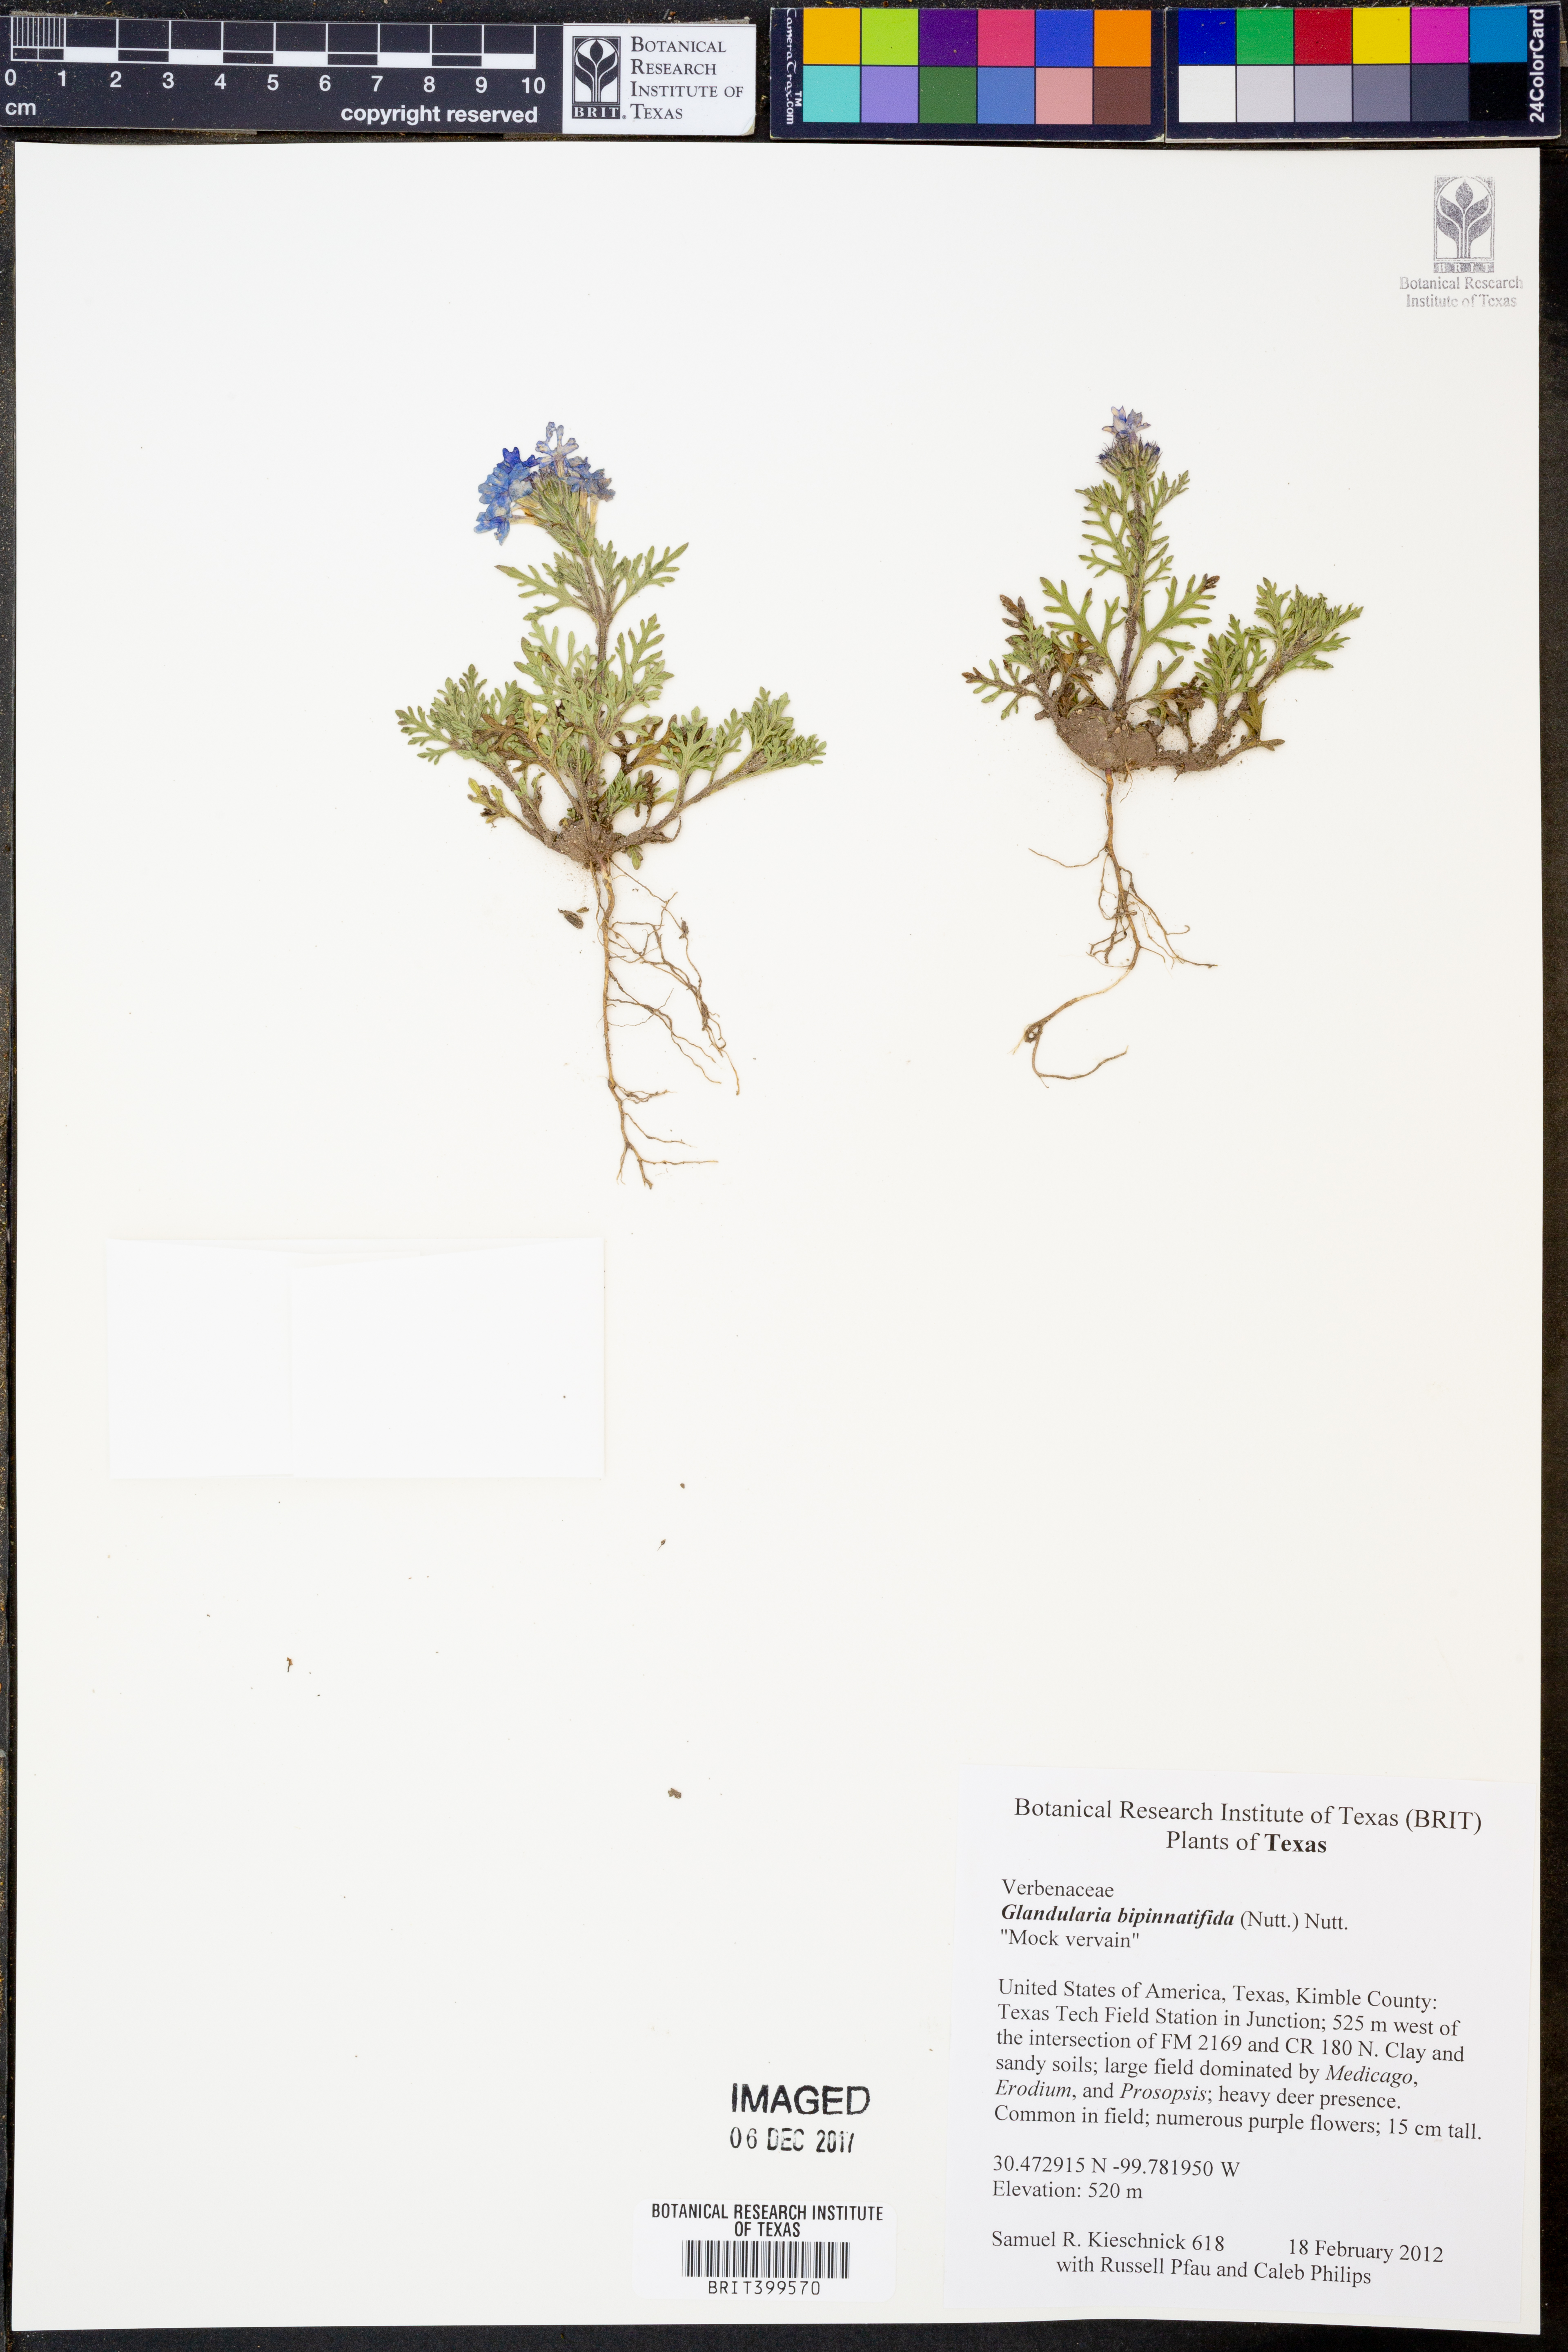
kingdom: Plantae
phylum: Tracheophyta
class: Magnoliopsida
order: Lamiales
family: Verbenaceae
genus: Verbena
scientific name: Verbena bipinnatifida
